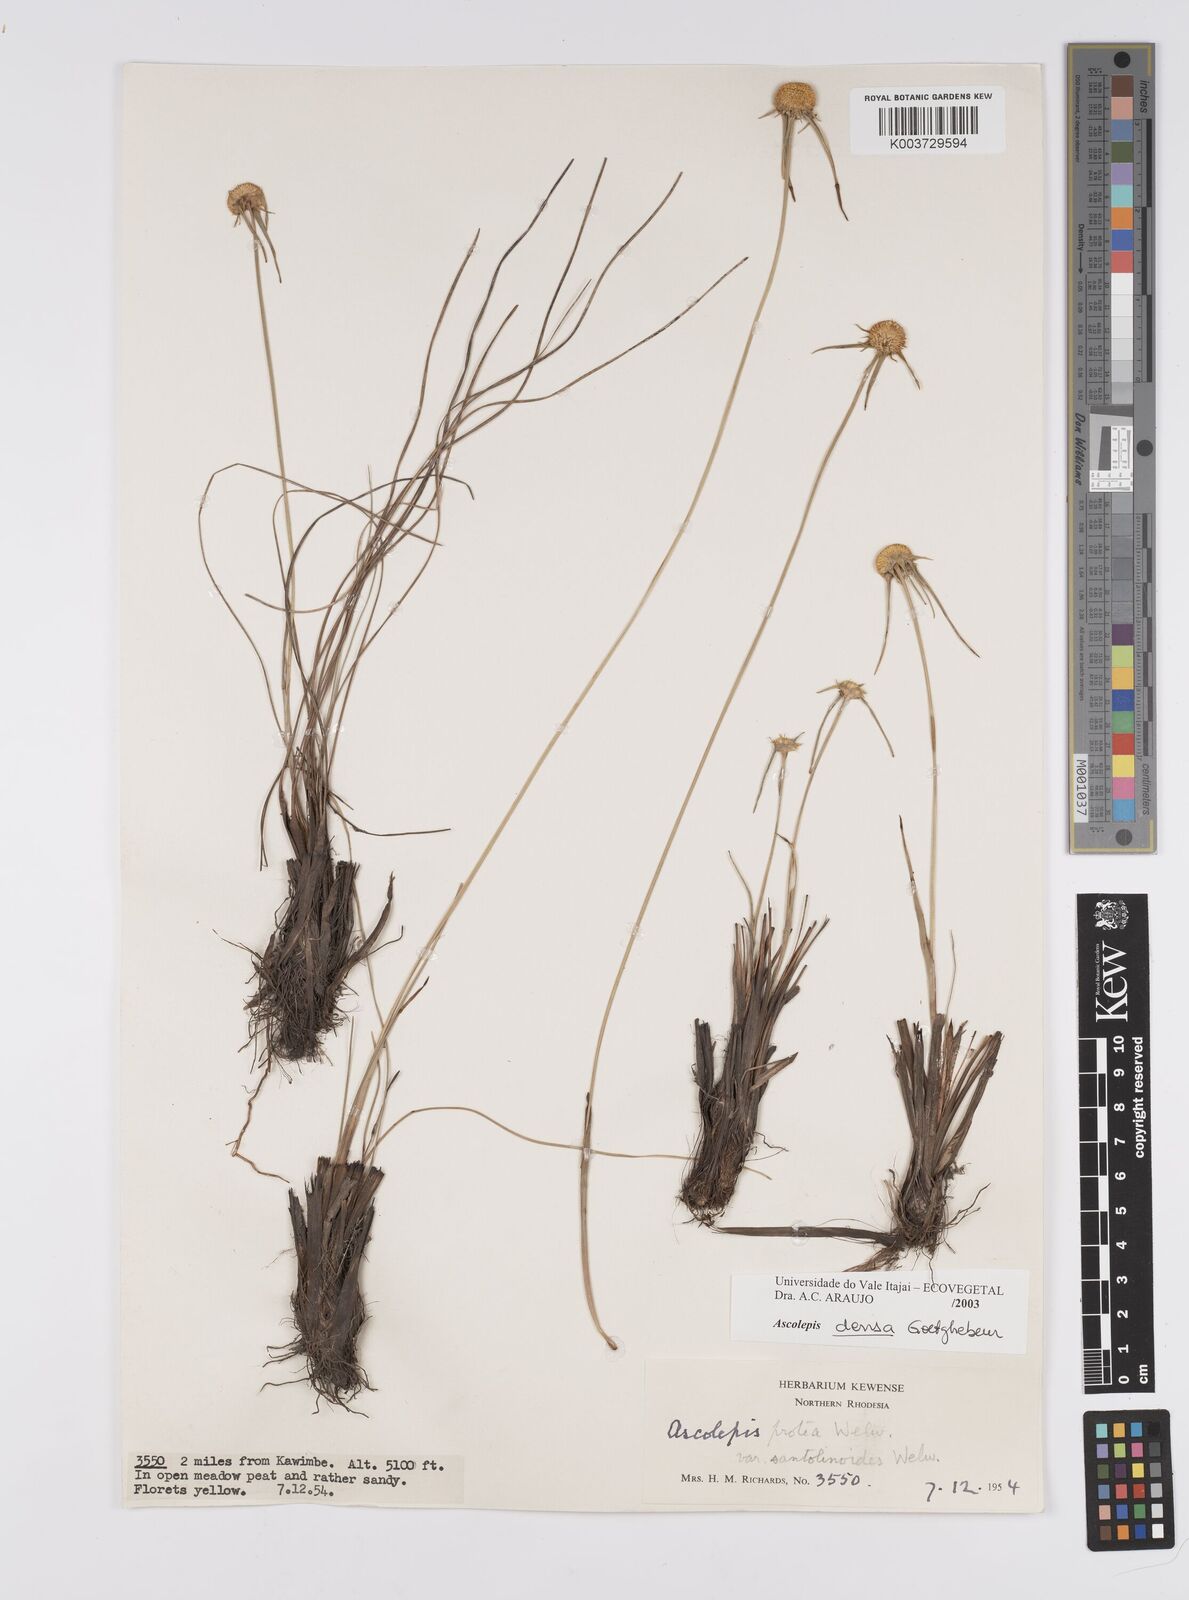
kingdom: Plantae
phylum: Tracheophyta
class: Liliopsida
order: Poales
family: Cyperaceae
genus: Cyperus
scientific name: Cyperus
